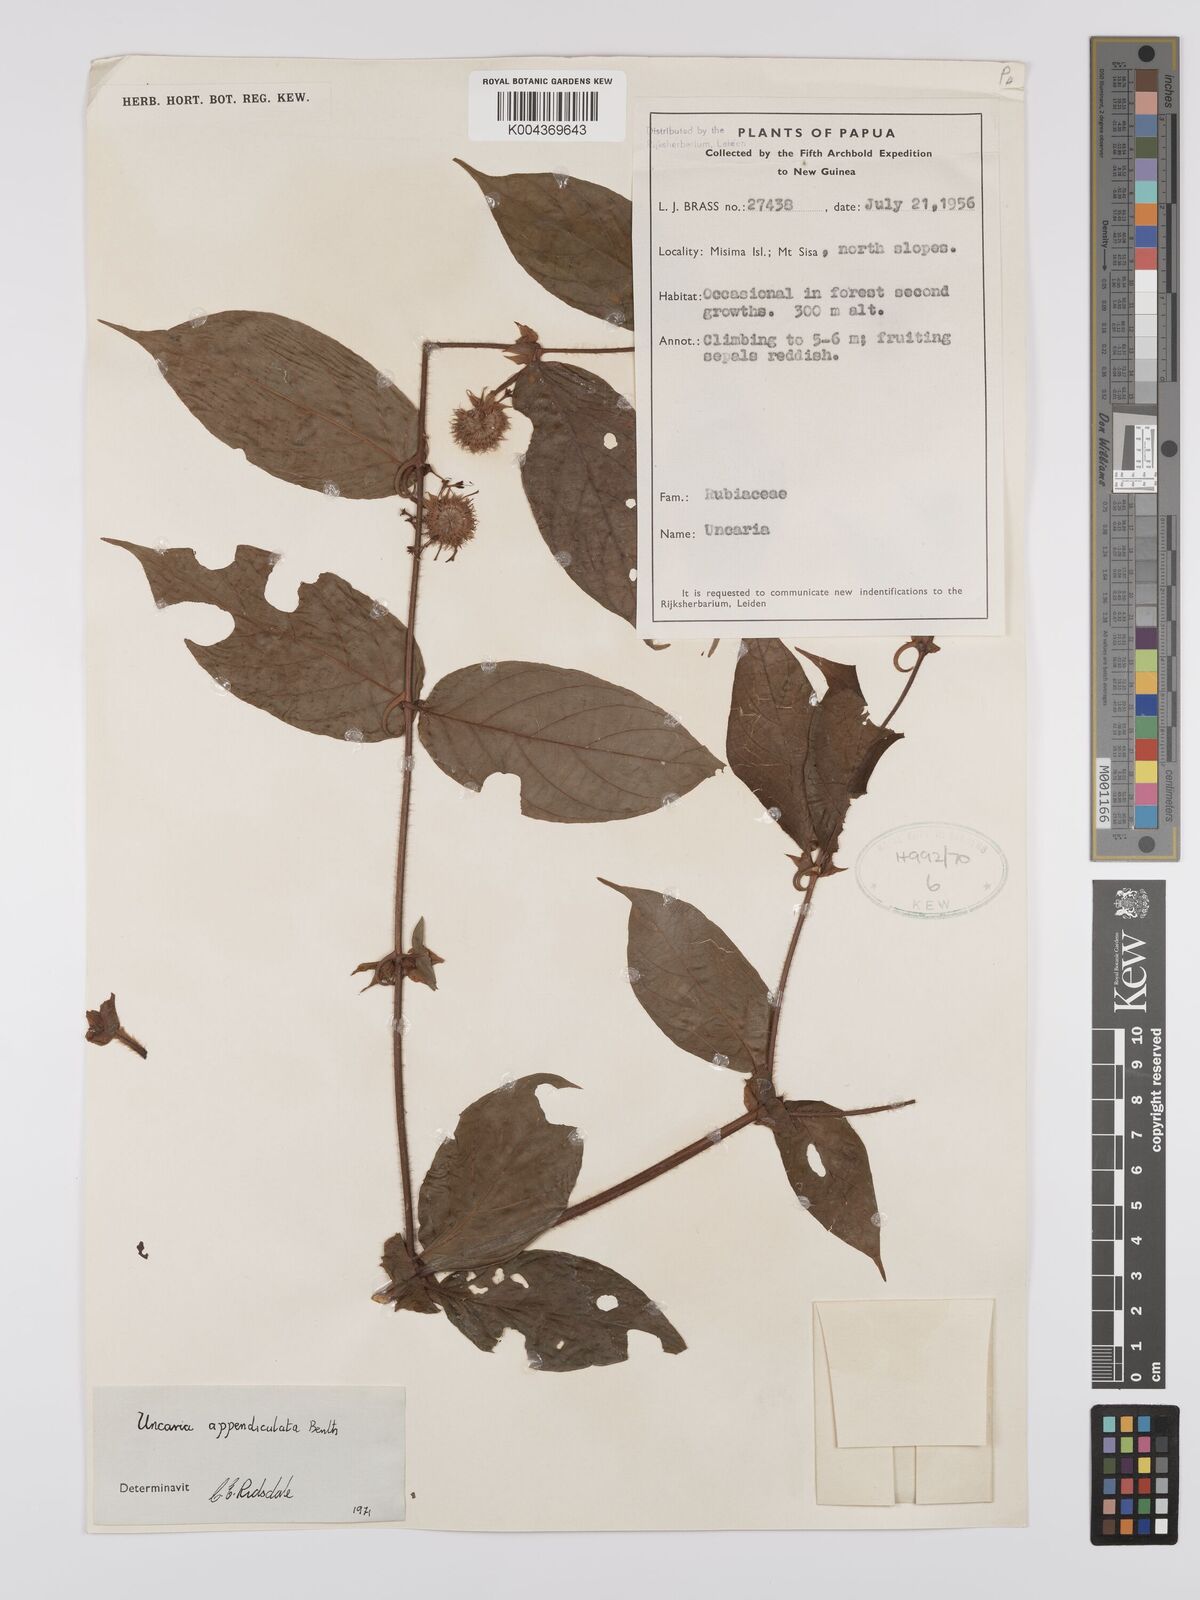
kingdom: Plantae
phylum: Tracheophyta
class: Magnoliopsida
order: Gentianales
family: Rubiaceae
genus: Uncaria
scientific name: Uncaria lanosa
